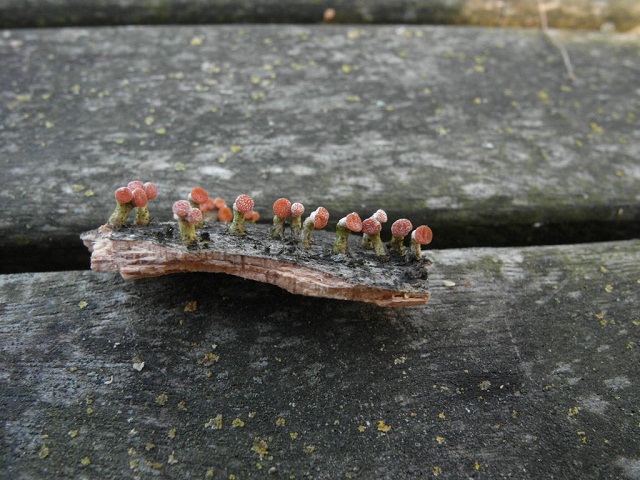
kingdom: Fungi
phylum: Basidiomycota
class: Dacrymycetes
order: Dacrymycetales
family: Dacrymycetaceae
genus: Ditiola
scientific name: Ditiola radicata
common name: rod-tåresvamp
